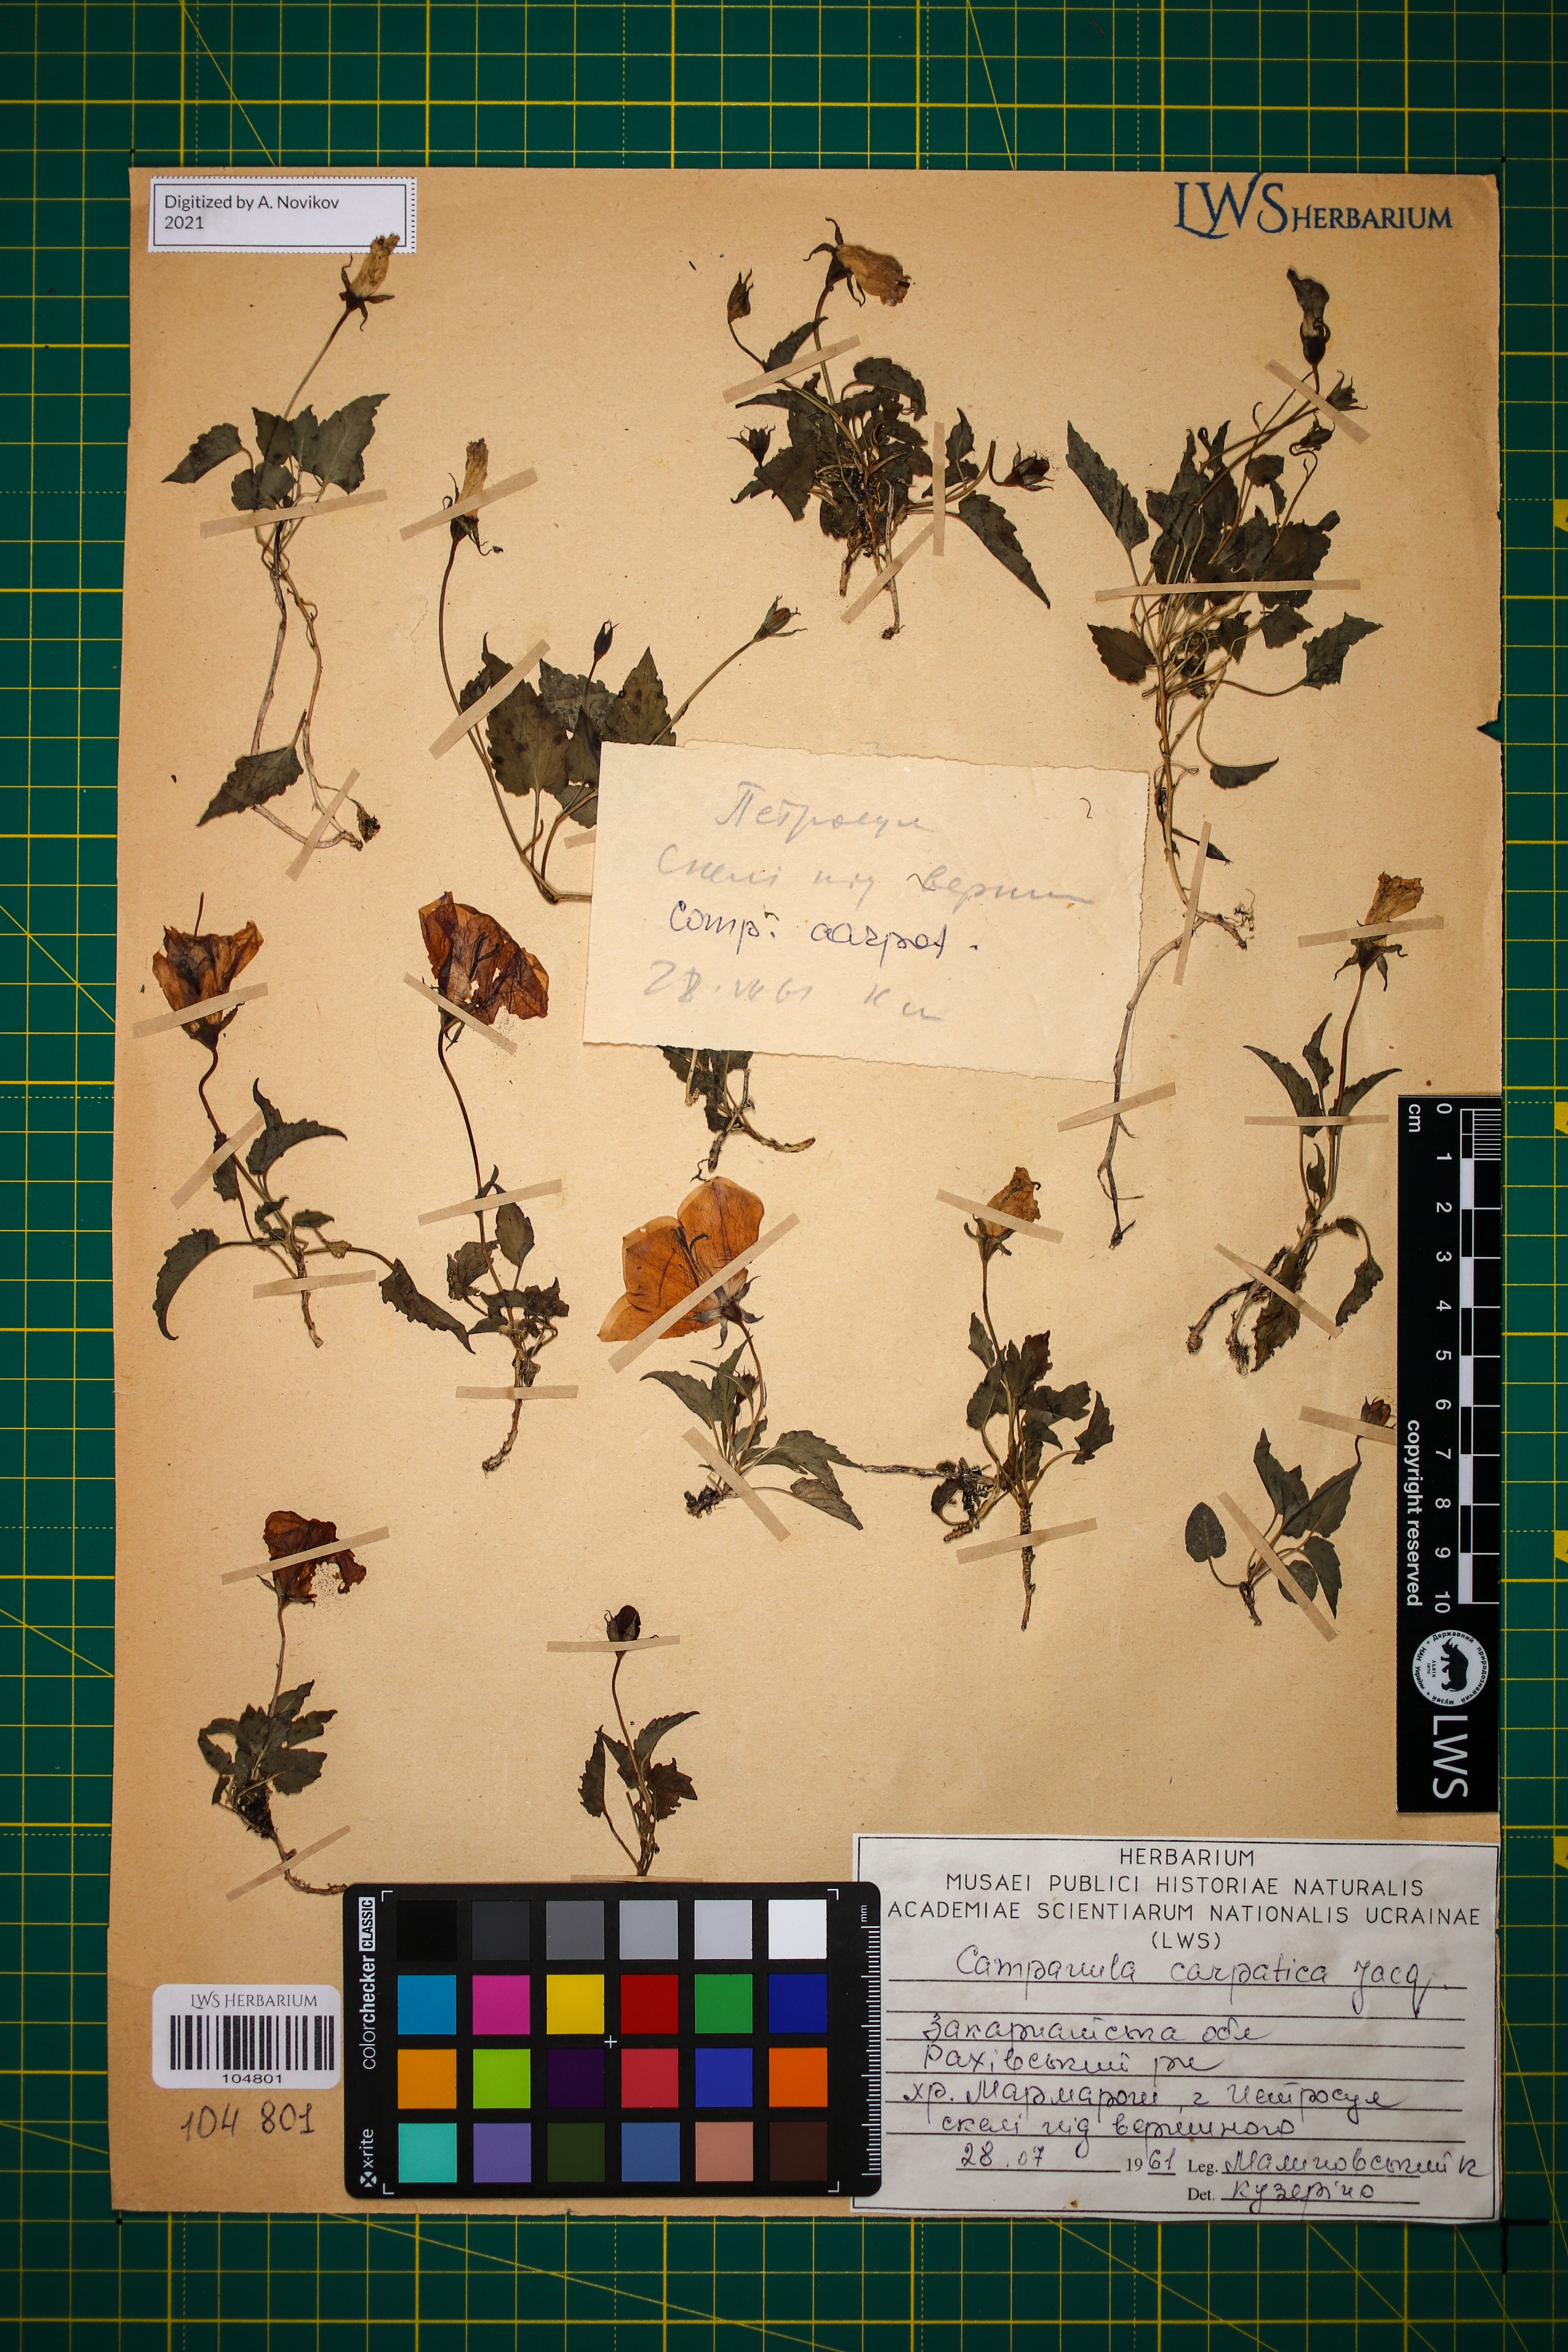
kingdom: Plantae
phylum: Tracheophyta
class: Magnoliopsida
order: Asterales
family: Campanulaceae
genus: Campanula
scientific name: Campanula carpatica
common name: Tussock bellflower
